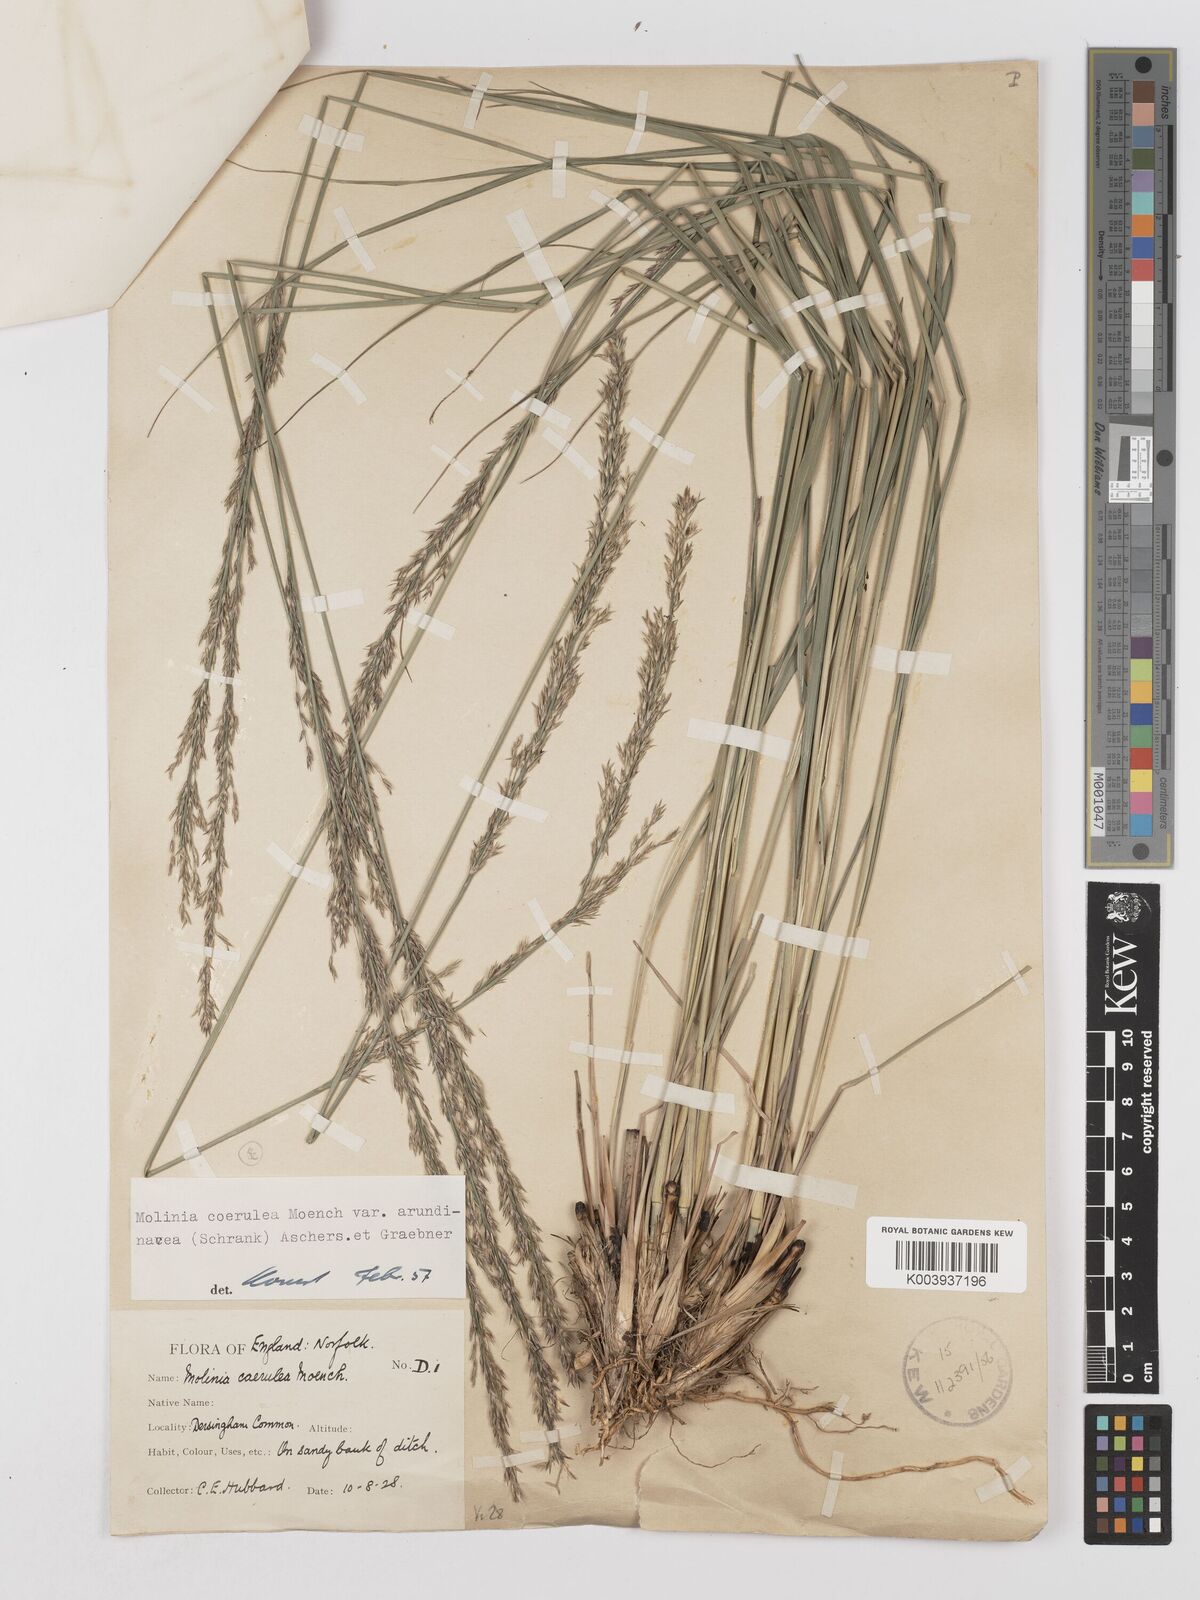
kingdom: Plantae
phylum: Tracheophyta
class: Liliopsida
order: Poales
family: Poaceae
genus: Molinia
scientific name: Molinia caerulea
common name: Purple moor-grass
